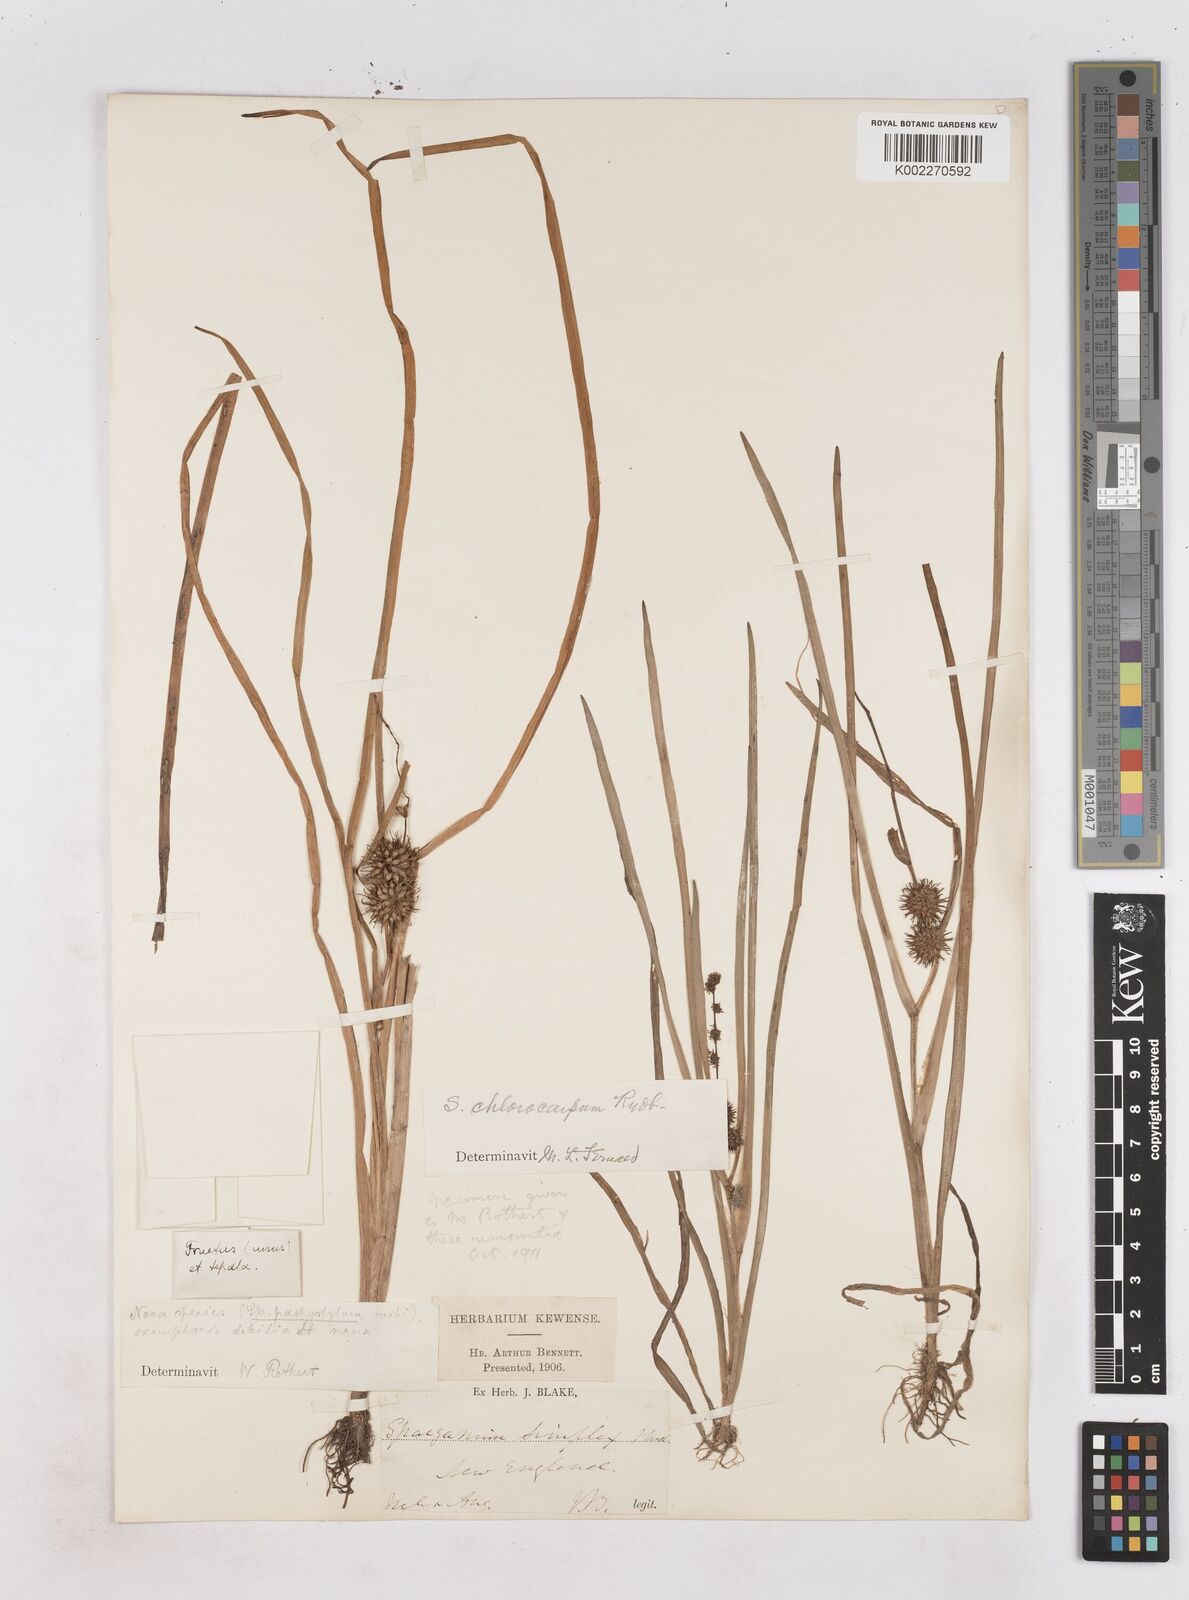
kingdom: Plantae
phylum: Tracheophyta
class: Liliopsida
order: Poales
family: Typhaceae
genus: Sparganium
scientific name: Sparganium emersum
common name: Unbranched bur-reed
